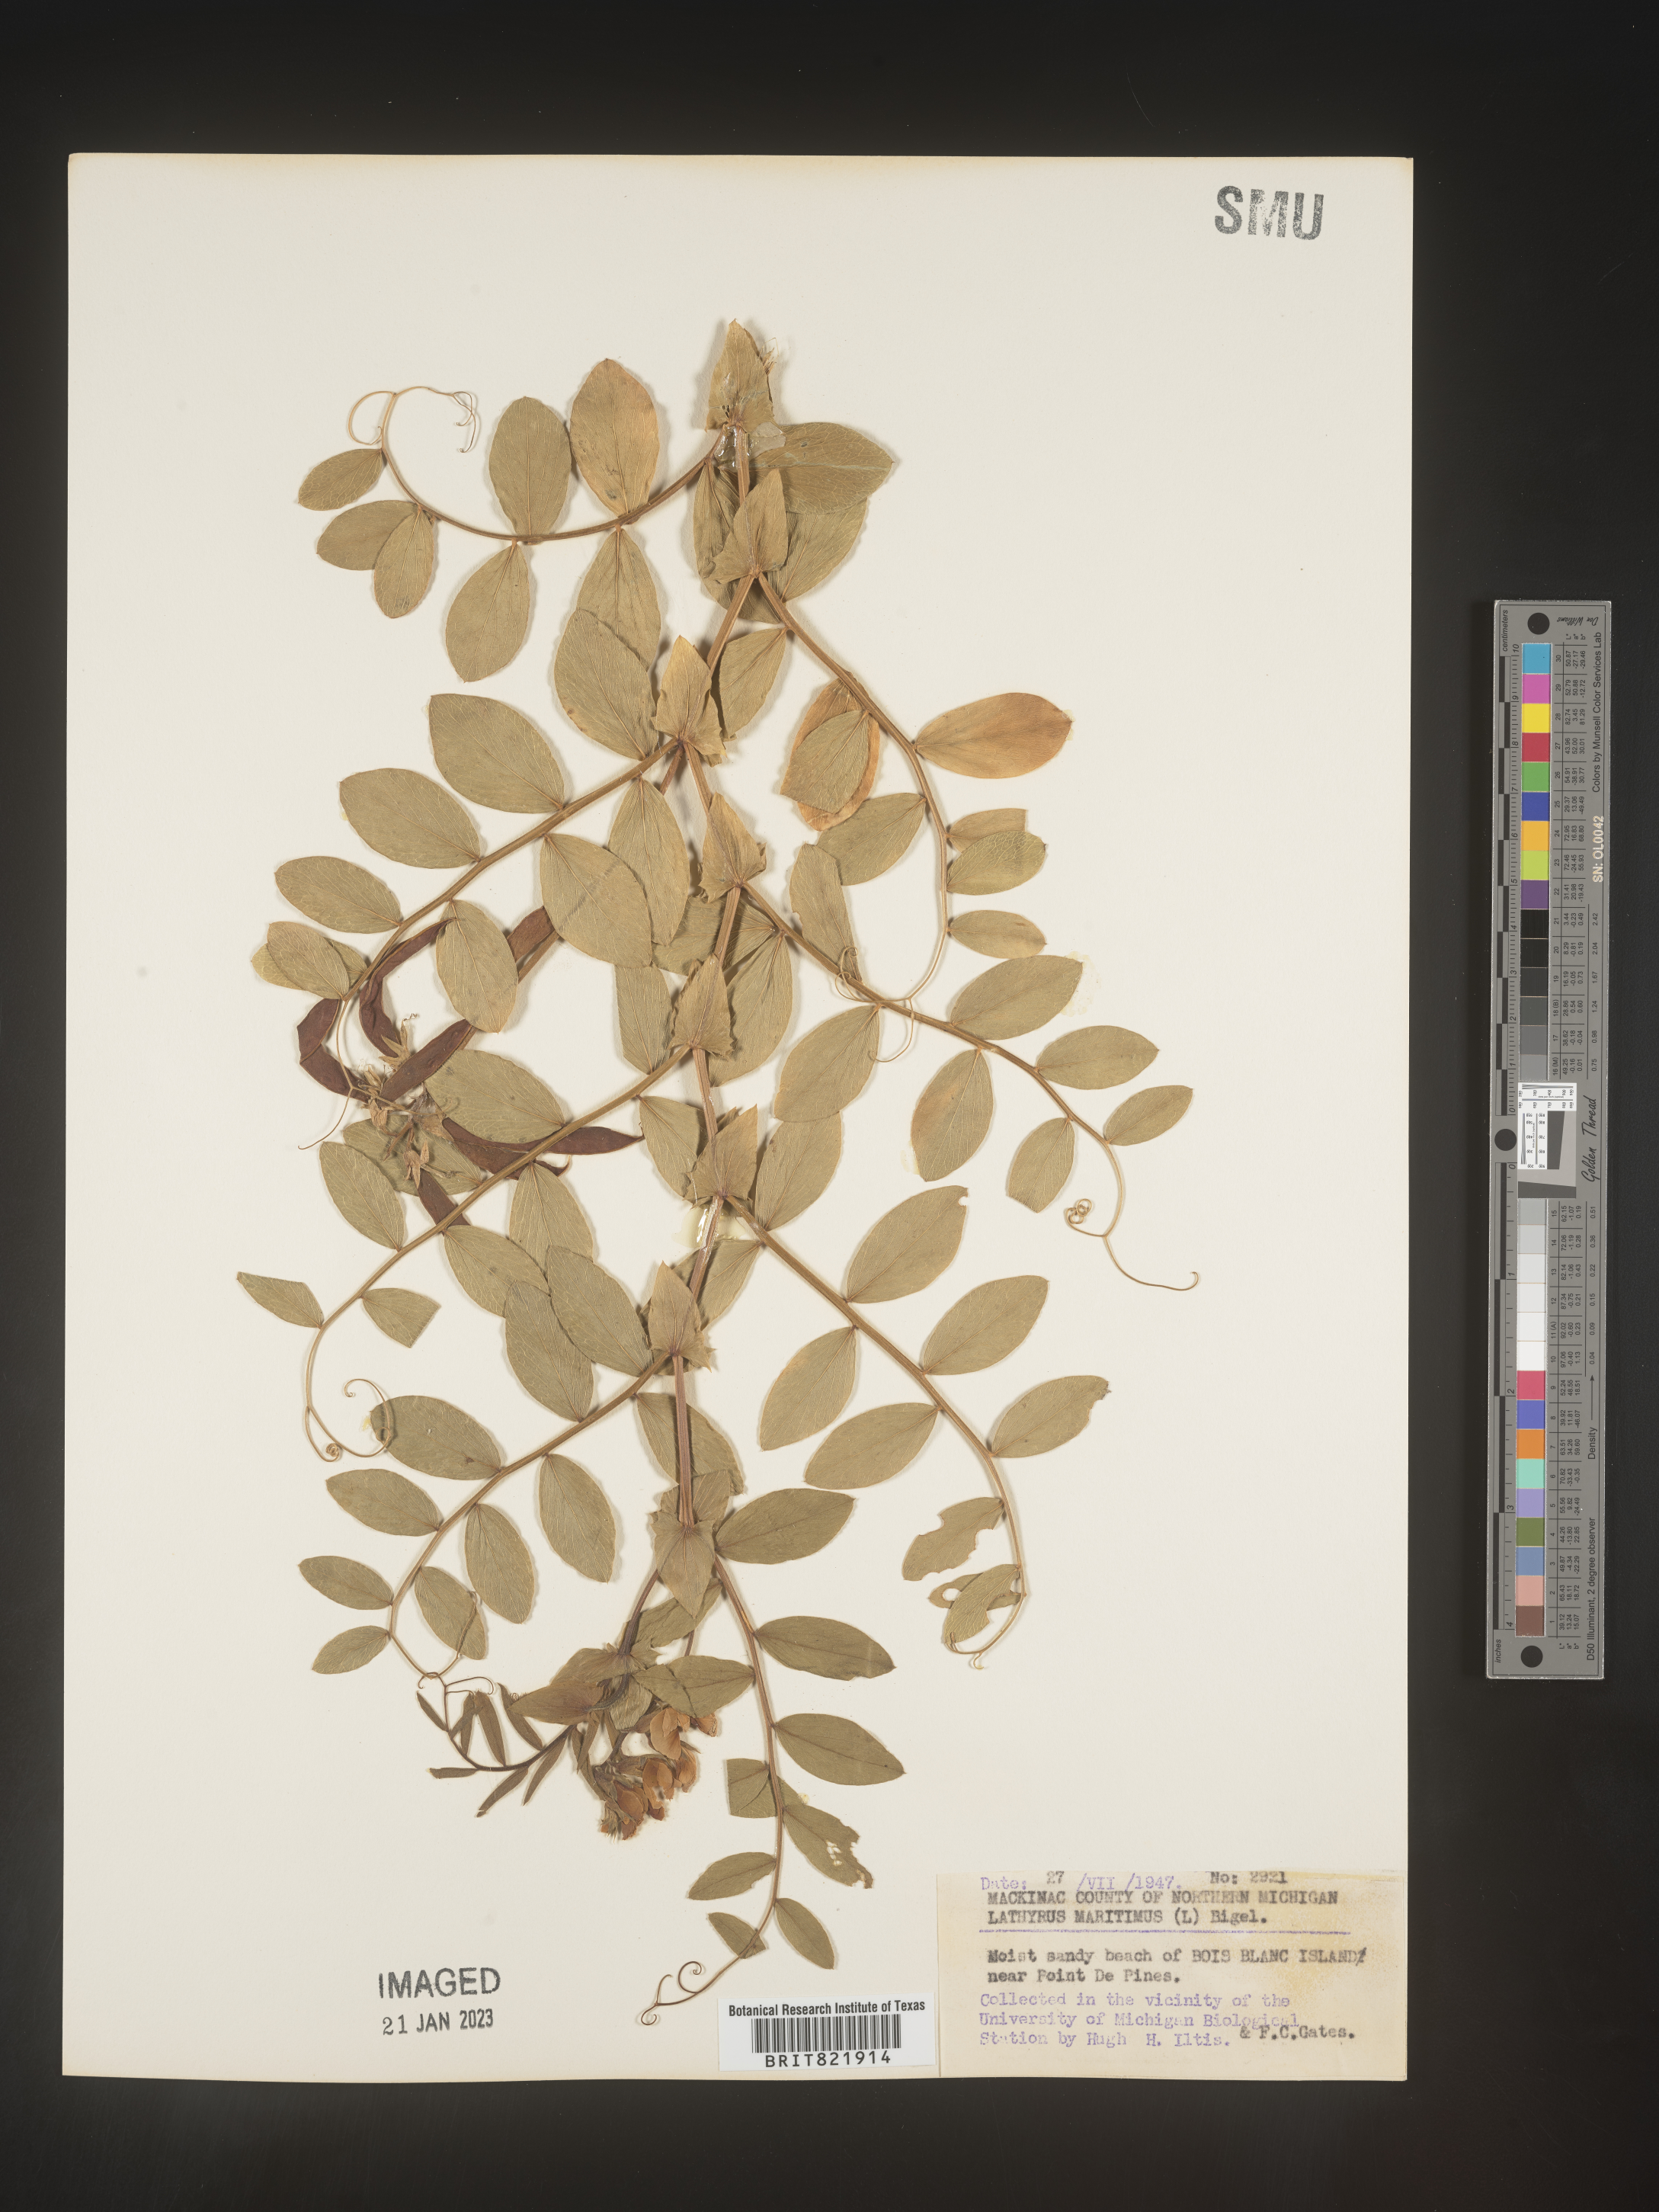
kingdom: Plantae
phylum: Tracheophyta
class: Magnoliopsida
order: Fabales
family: Fabaceae
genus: Lathyrus
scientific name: Lathyrus
